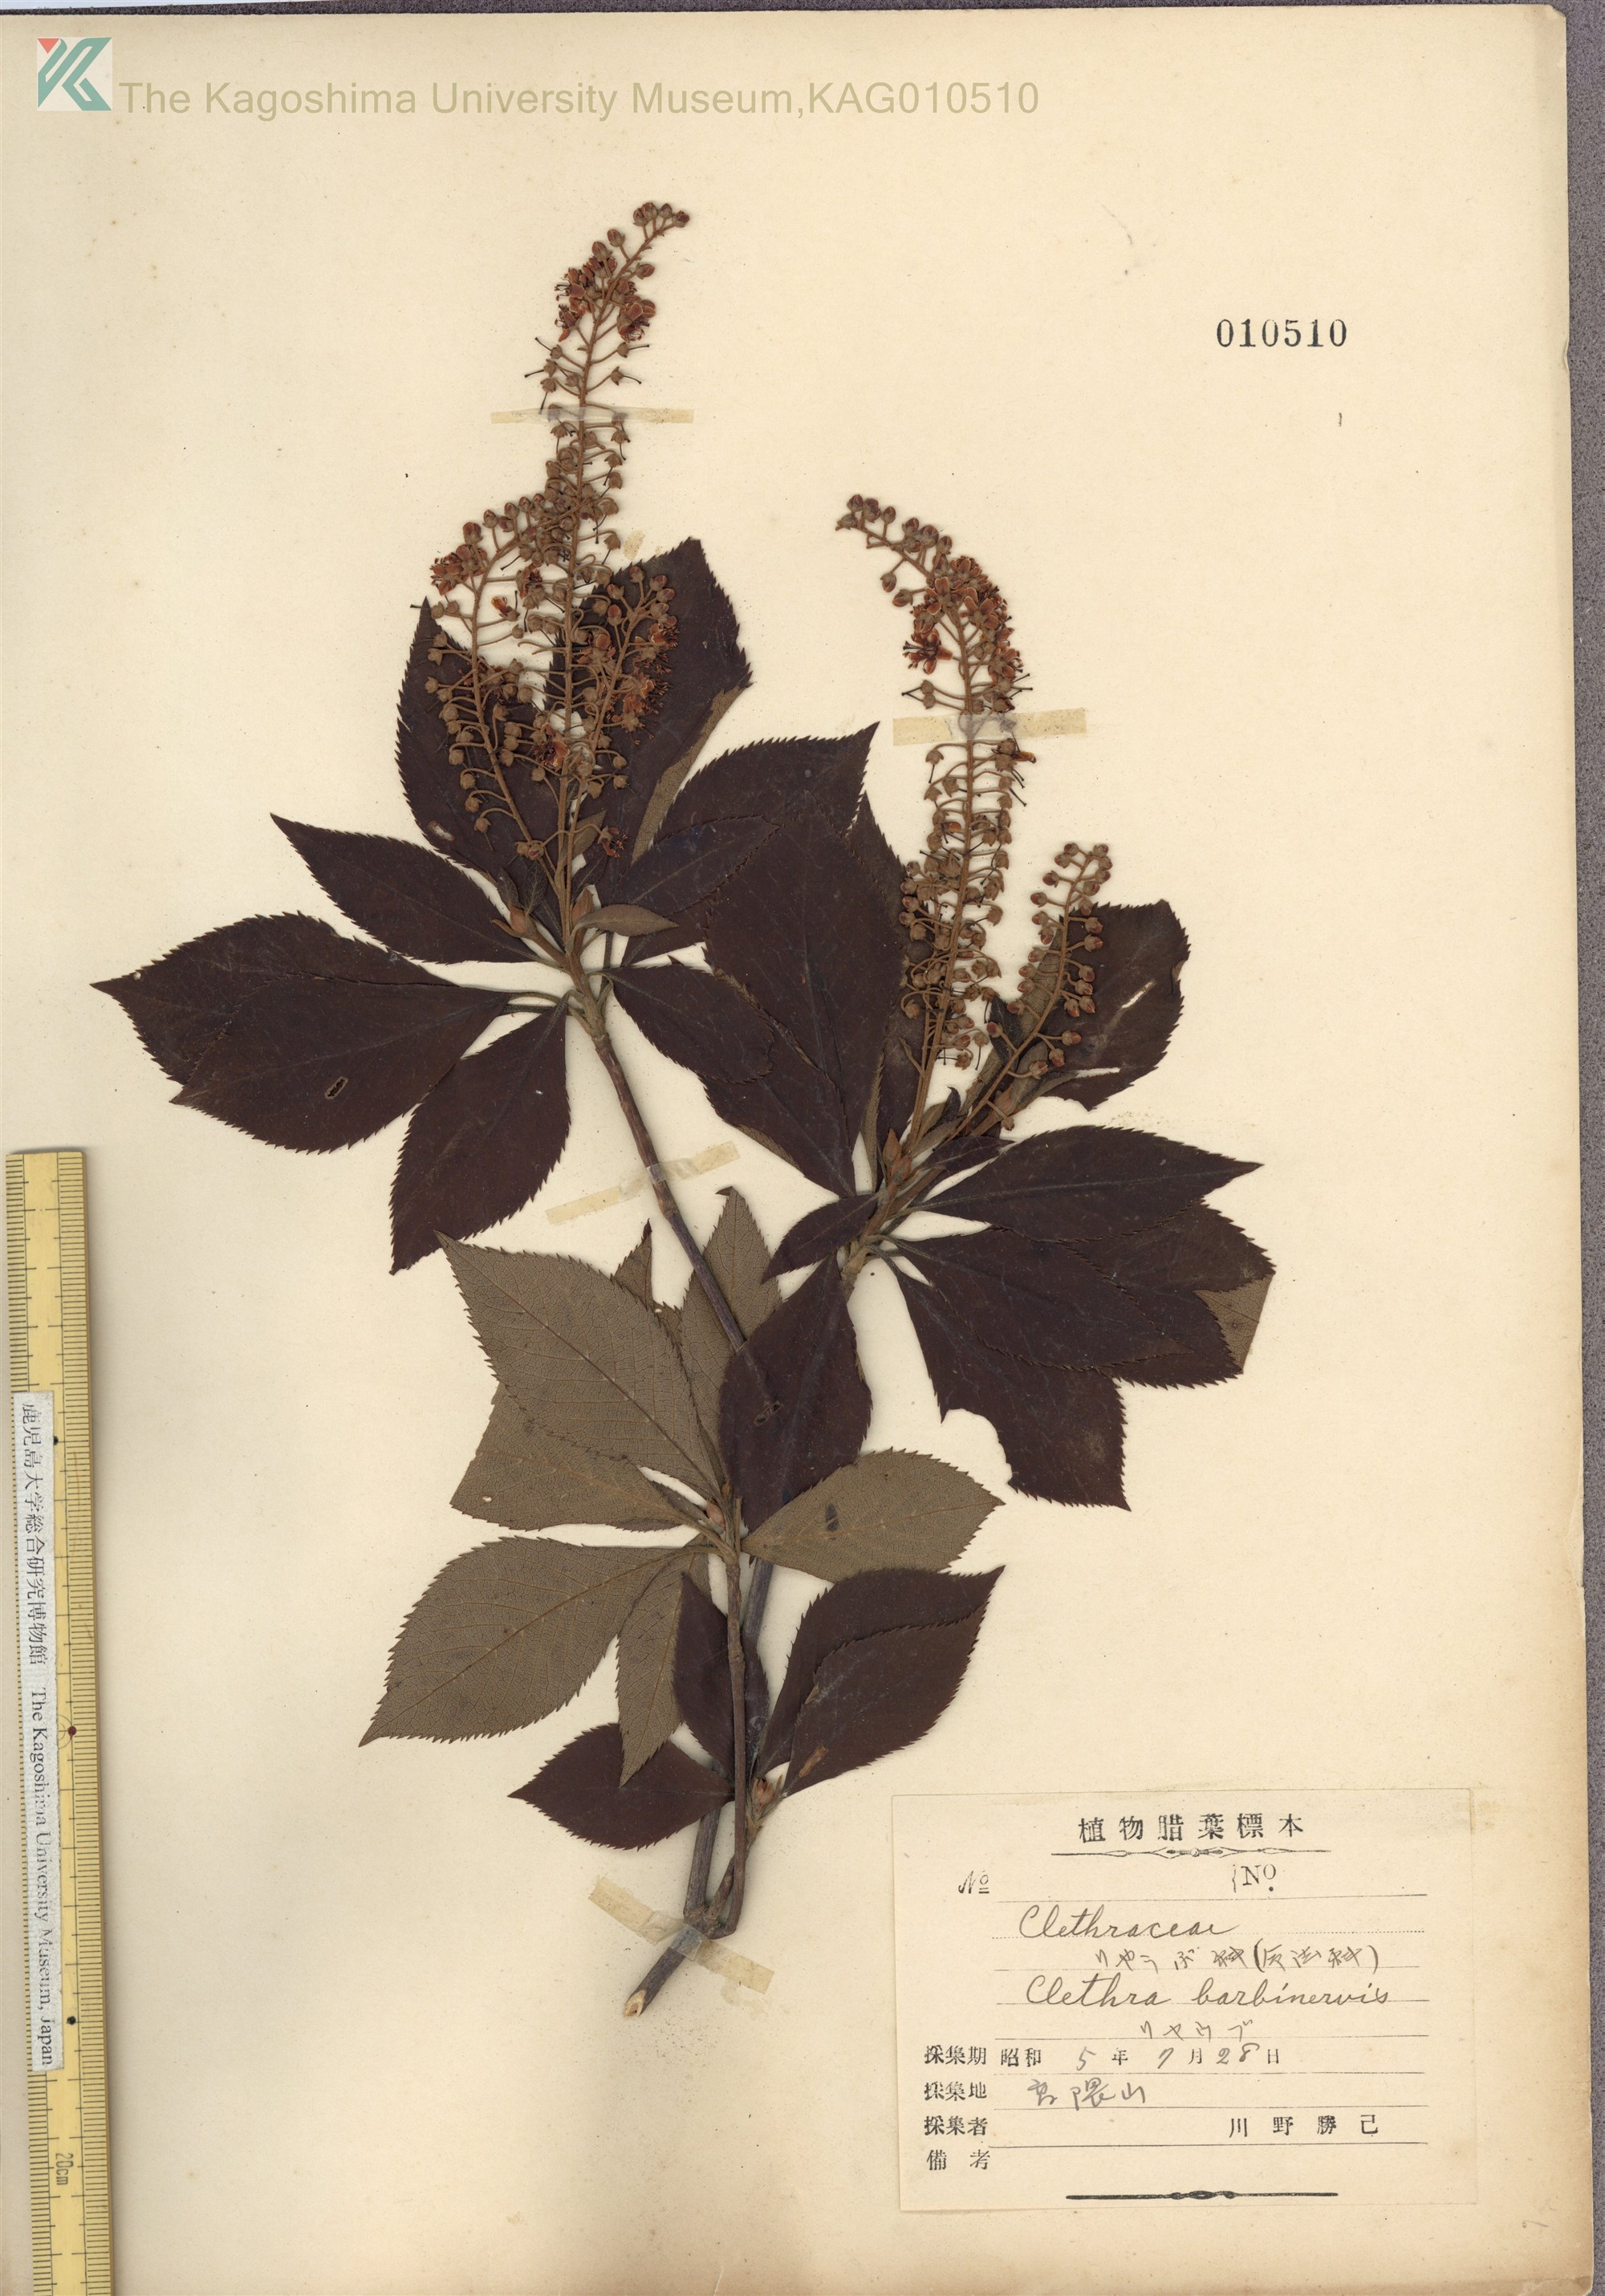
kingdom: Plantae
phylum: Tracheophyta
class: Magnoliopsida
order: Ericales
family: Clethraceae
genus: Clethra
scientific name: Clethra barbinervis
